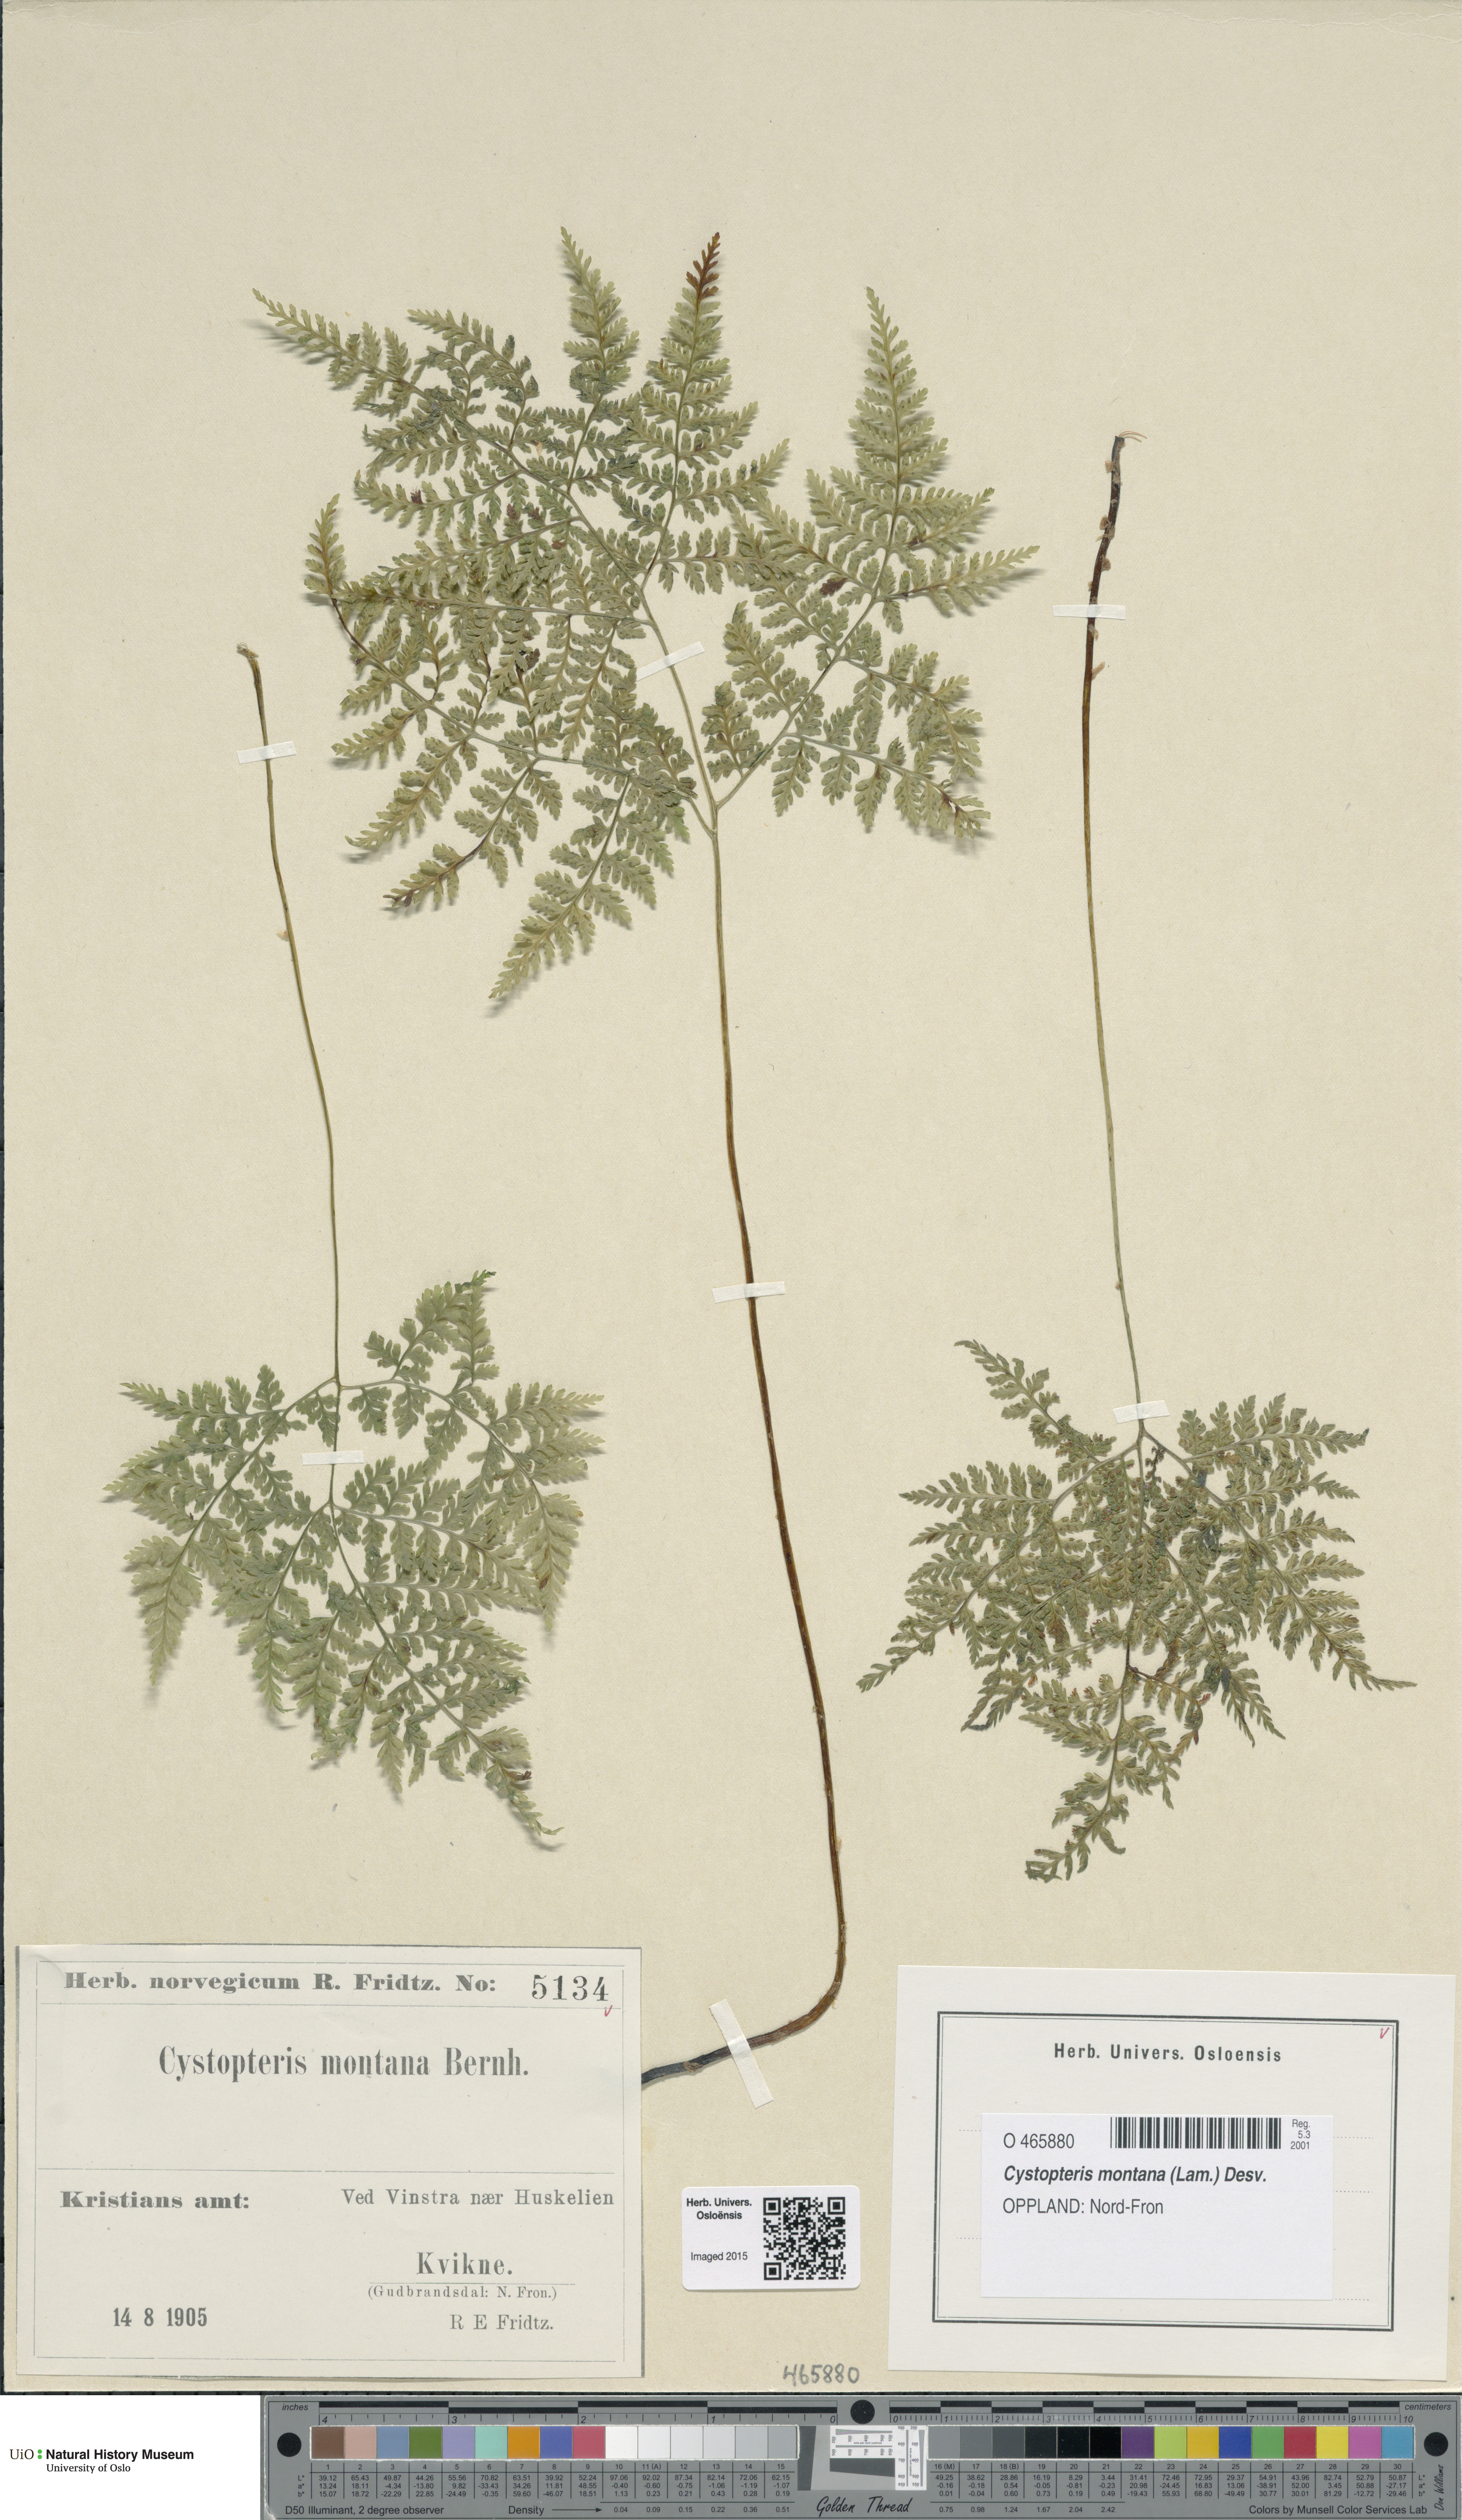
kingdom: Plantae
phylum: Tracheophyta
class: Polypodiopsida
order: Polypodiales
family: Cystopteridaceae
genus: Cystopteris
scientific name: Cystopteris montana
